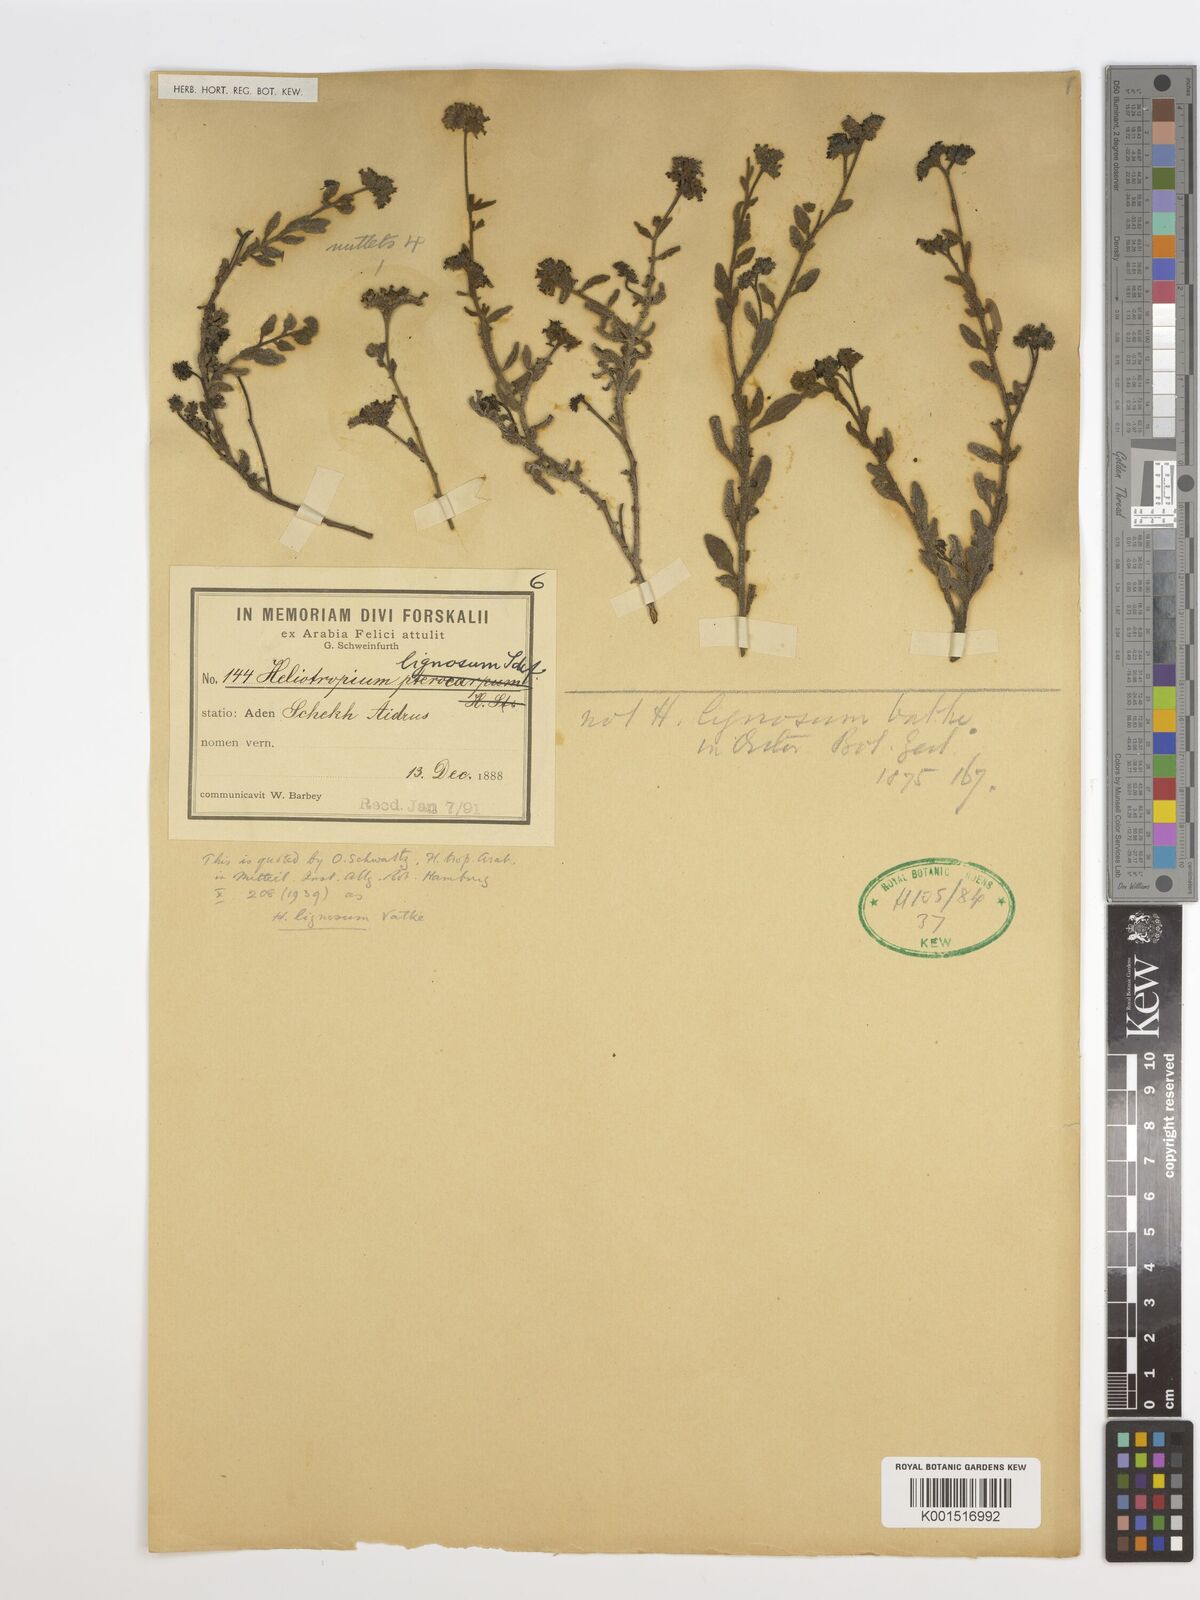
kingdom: Plantae
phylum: Tracheophyta
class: Magnoliopsida
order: Boraginales
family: Heliotropiaceae
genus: Heliotropium
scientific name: Heliotropium lignosum
